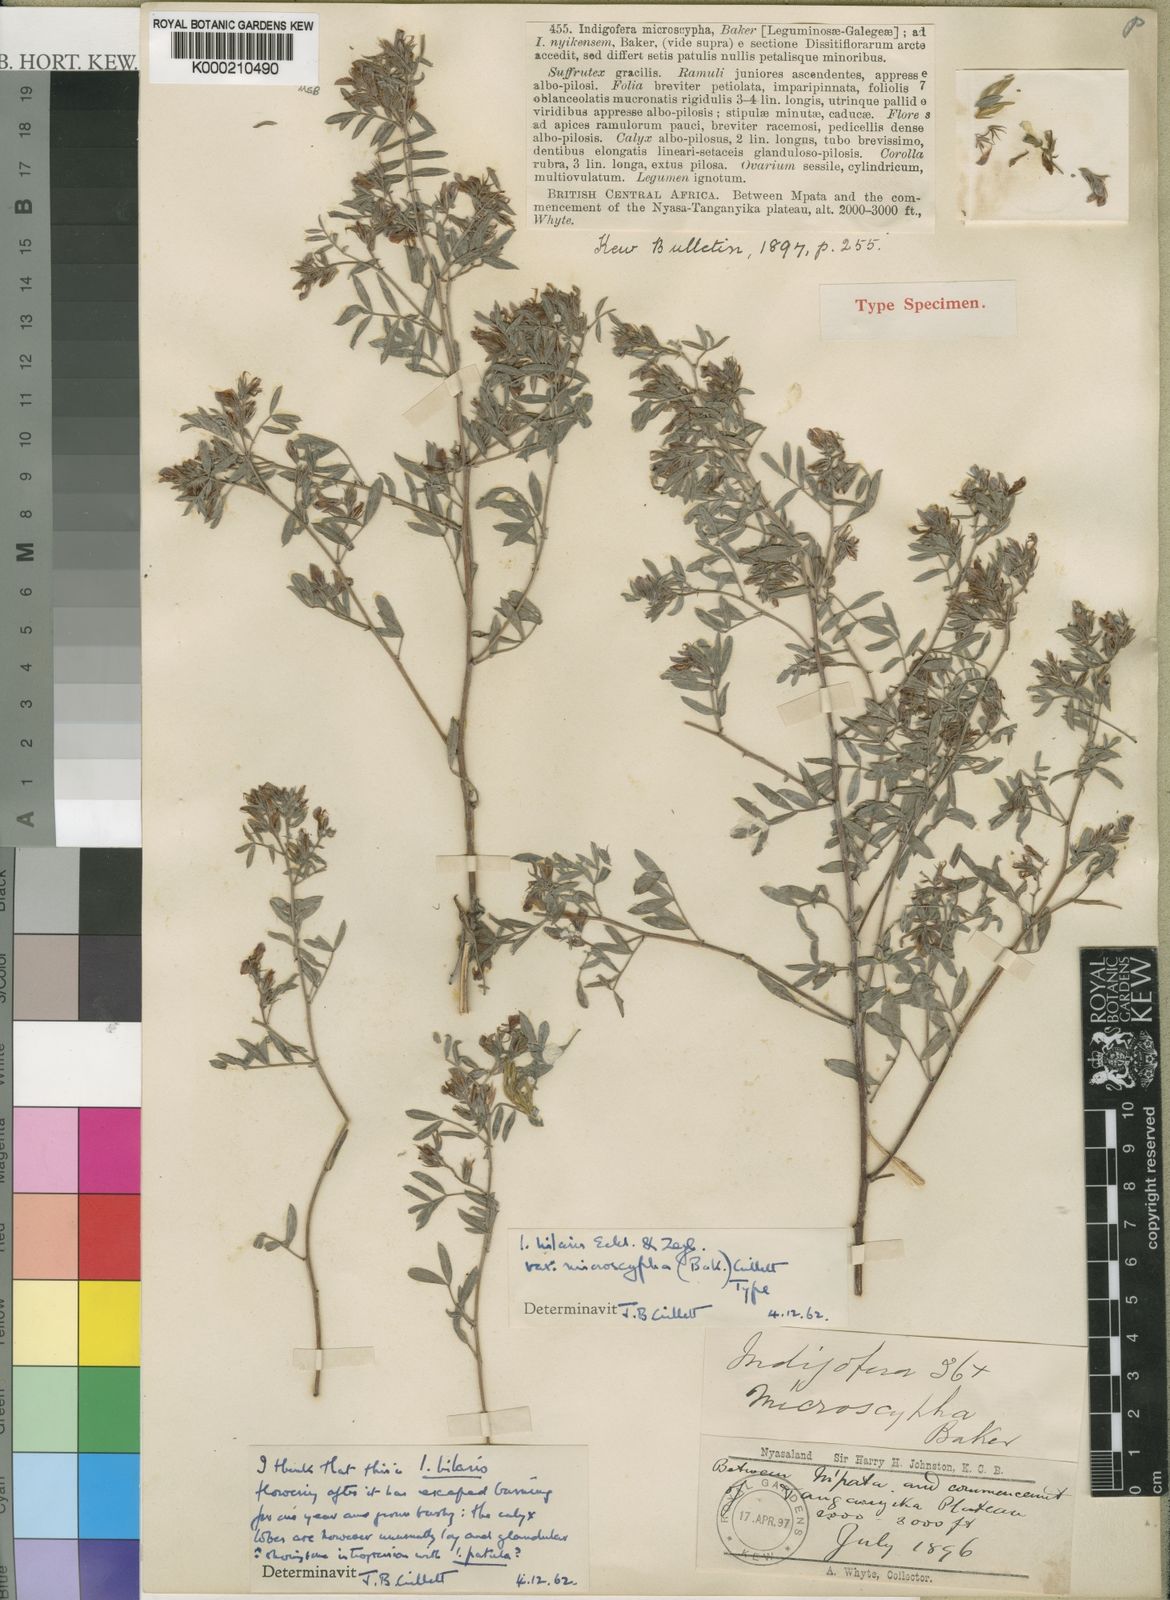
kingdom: Plantae
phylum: Tracheophyta
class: Magnoliopsida
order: Fabales
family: Fabaceae
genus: Indigofera
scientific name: Indigofera hilaris
